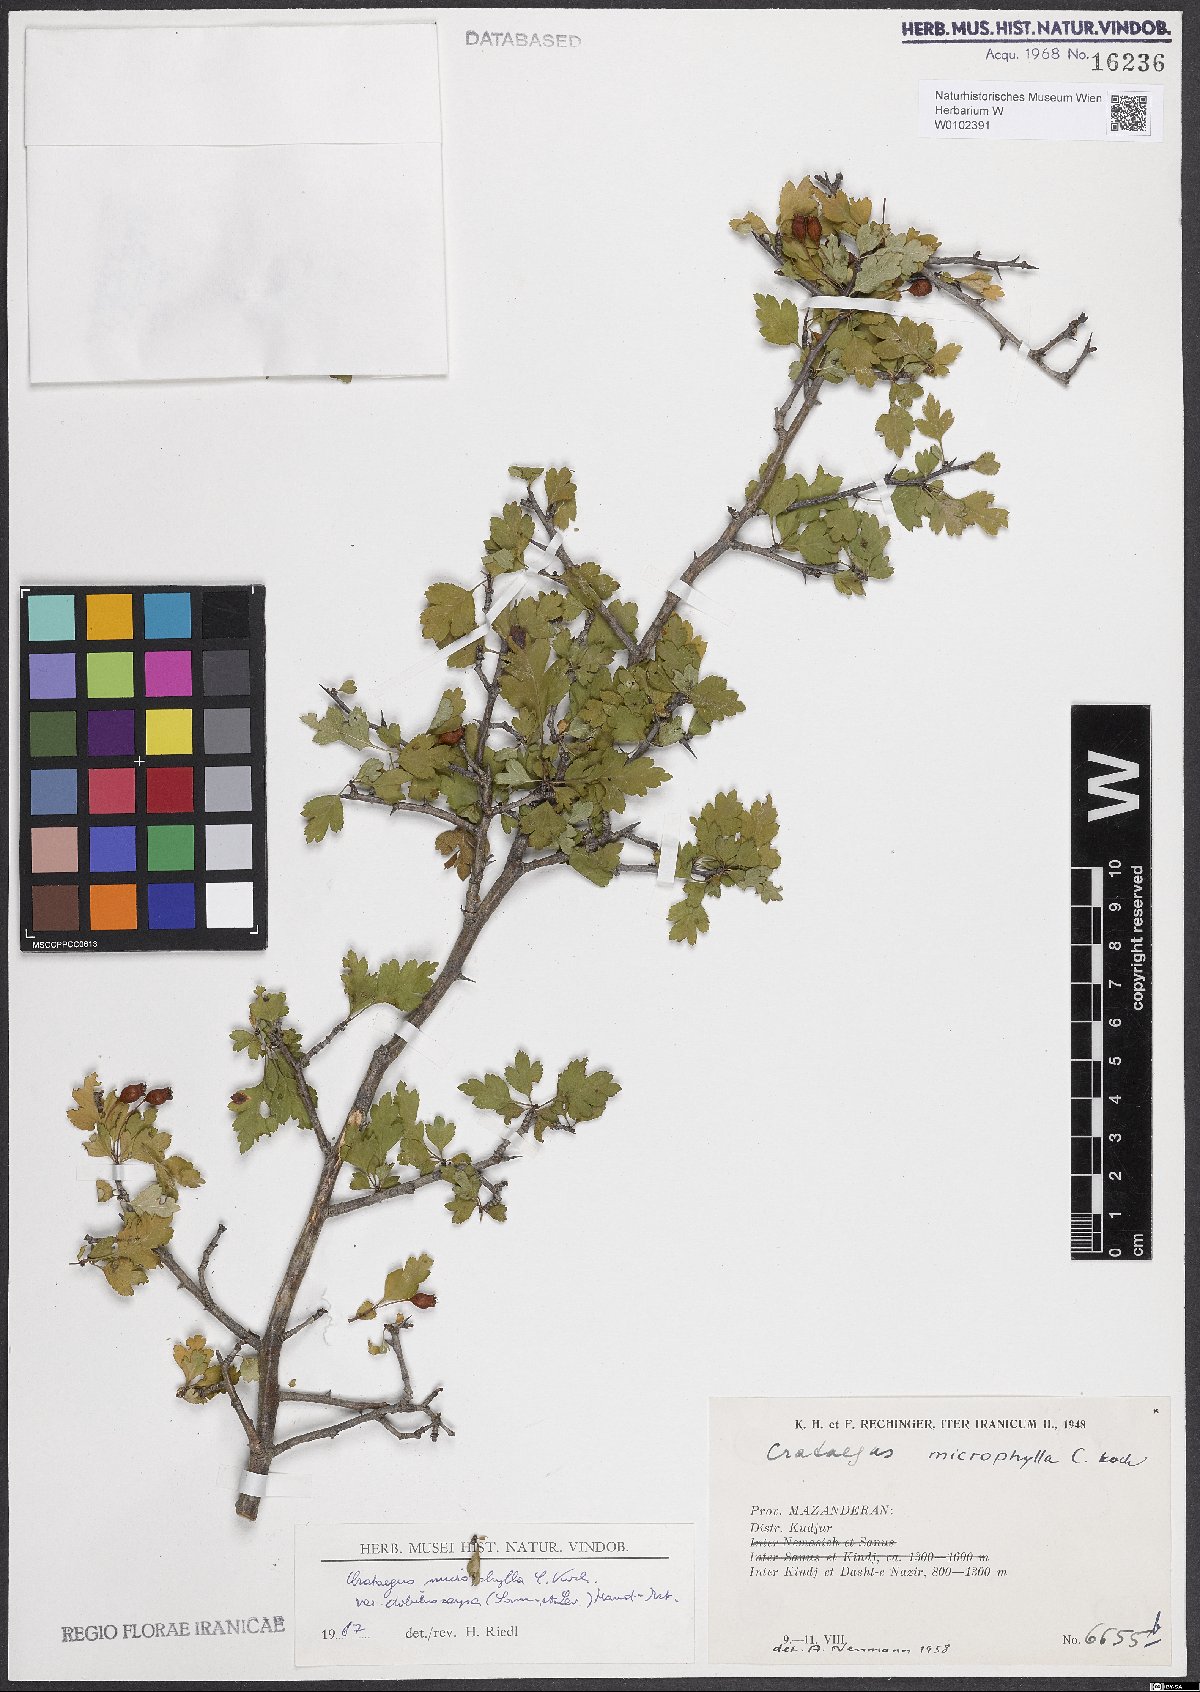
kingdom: Plantae
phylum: Tracheophyta
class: Magnoliopsida
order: Rosales
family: Rosaceae
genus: Crataegus
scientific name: Crataegus microphylla
